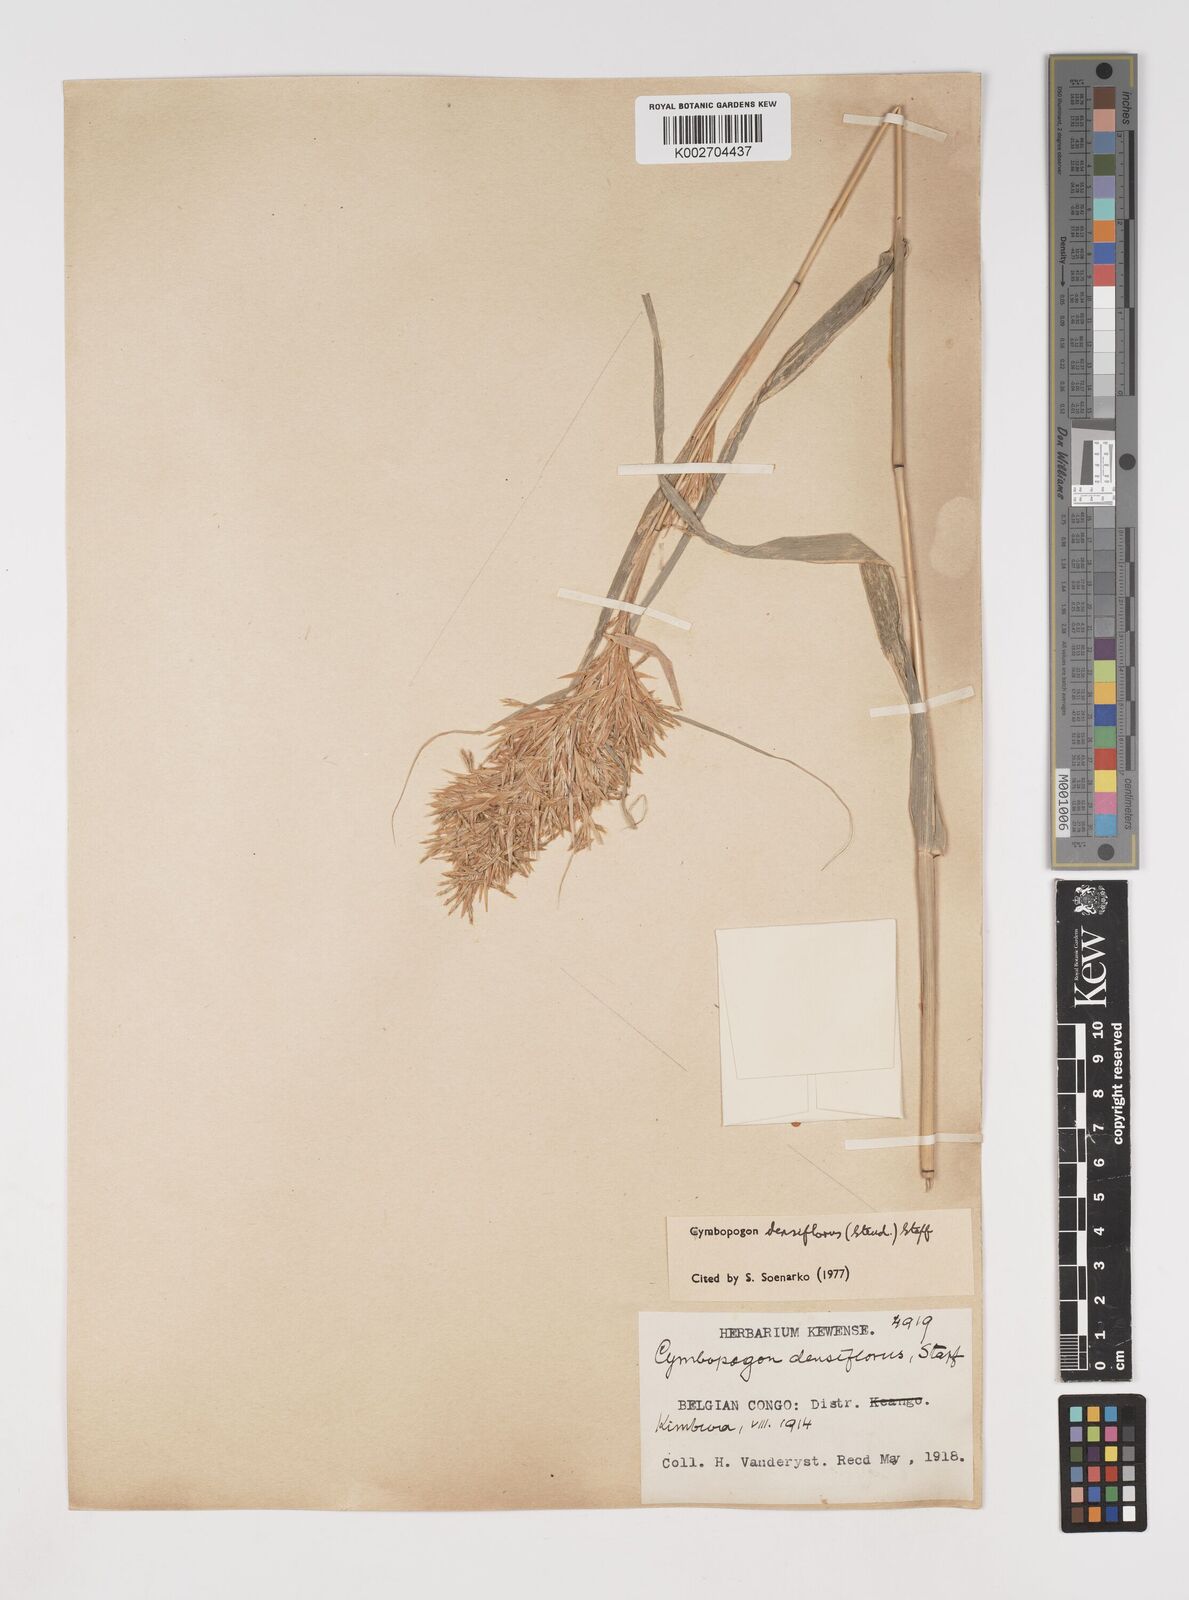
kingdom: Plantae
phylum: Tracheophyta
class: Liliopsida
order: Poales
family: Poaceae
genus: Cymbopogon
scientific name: Cymbopogon densiflorus
